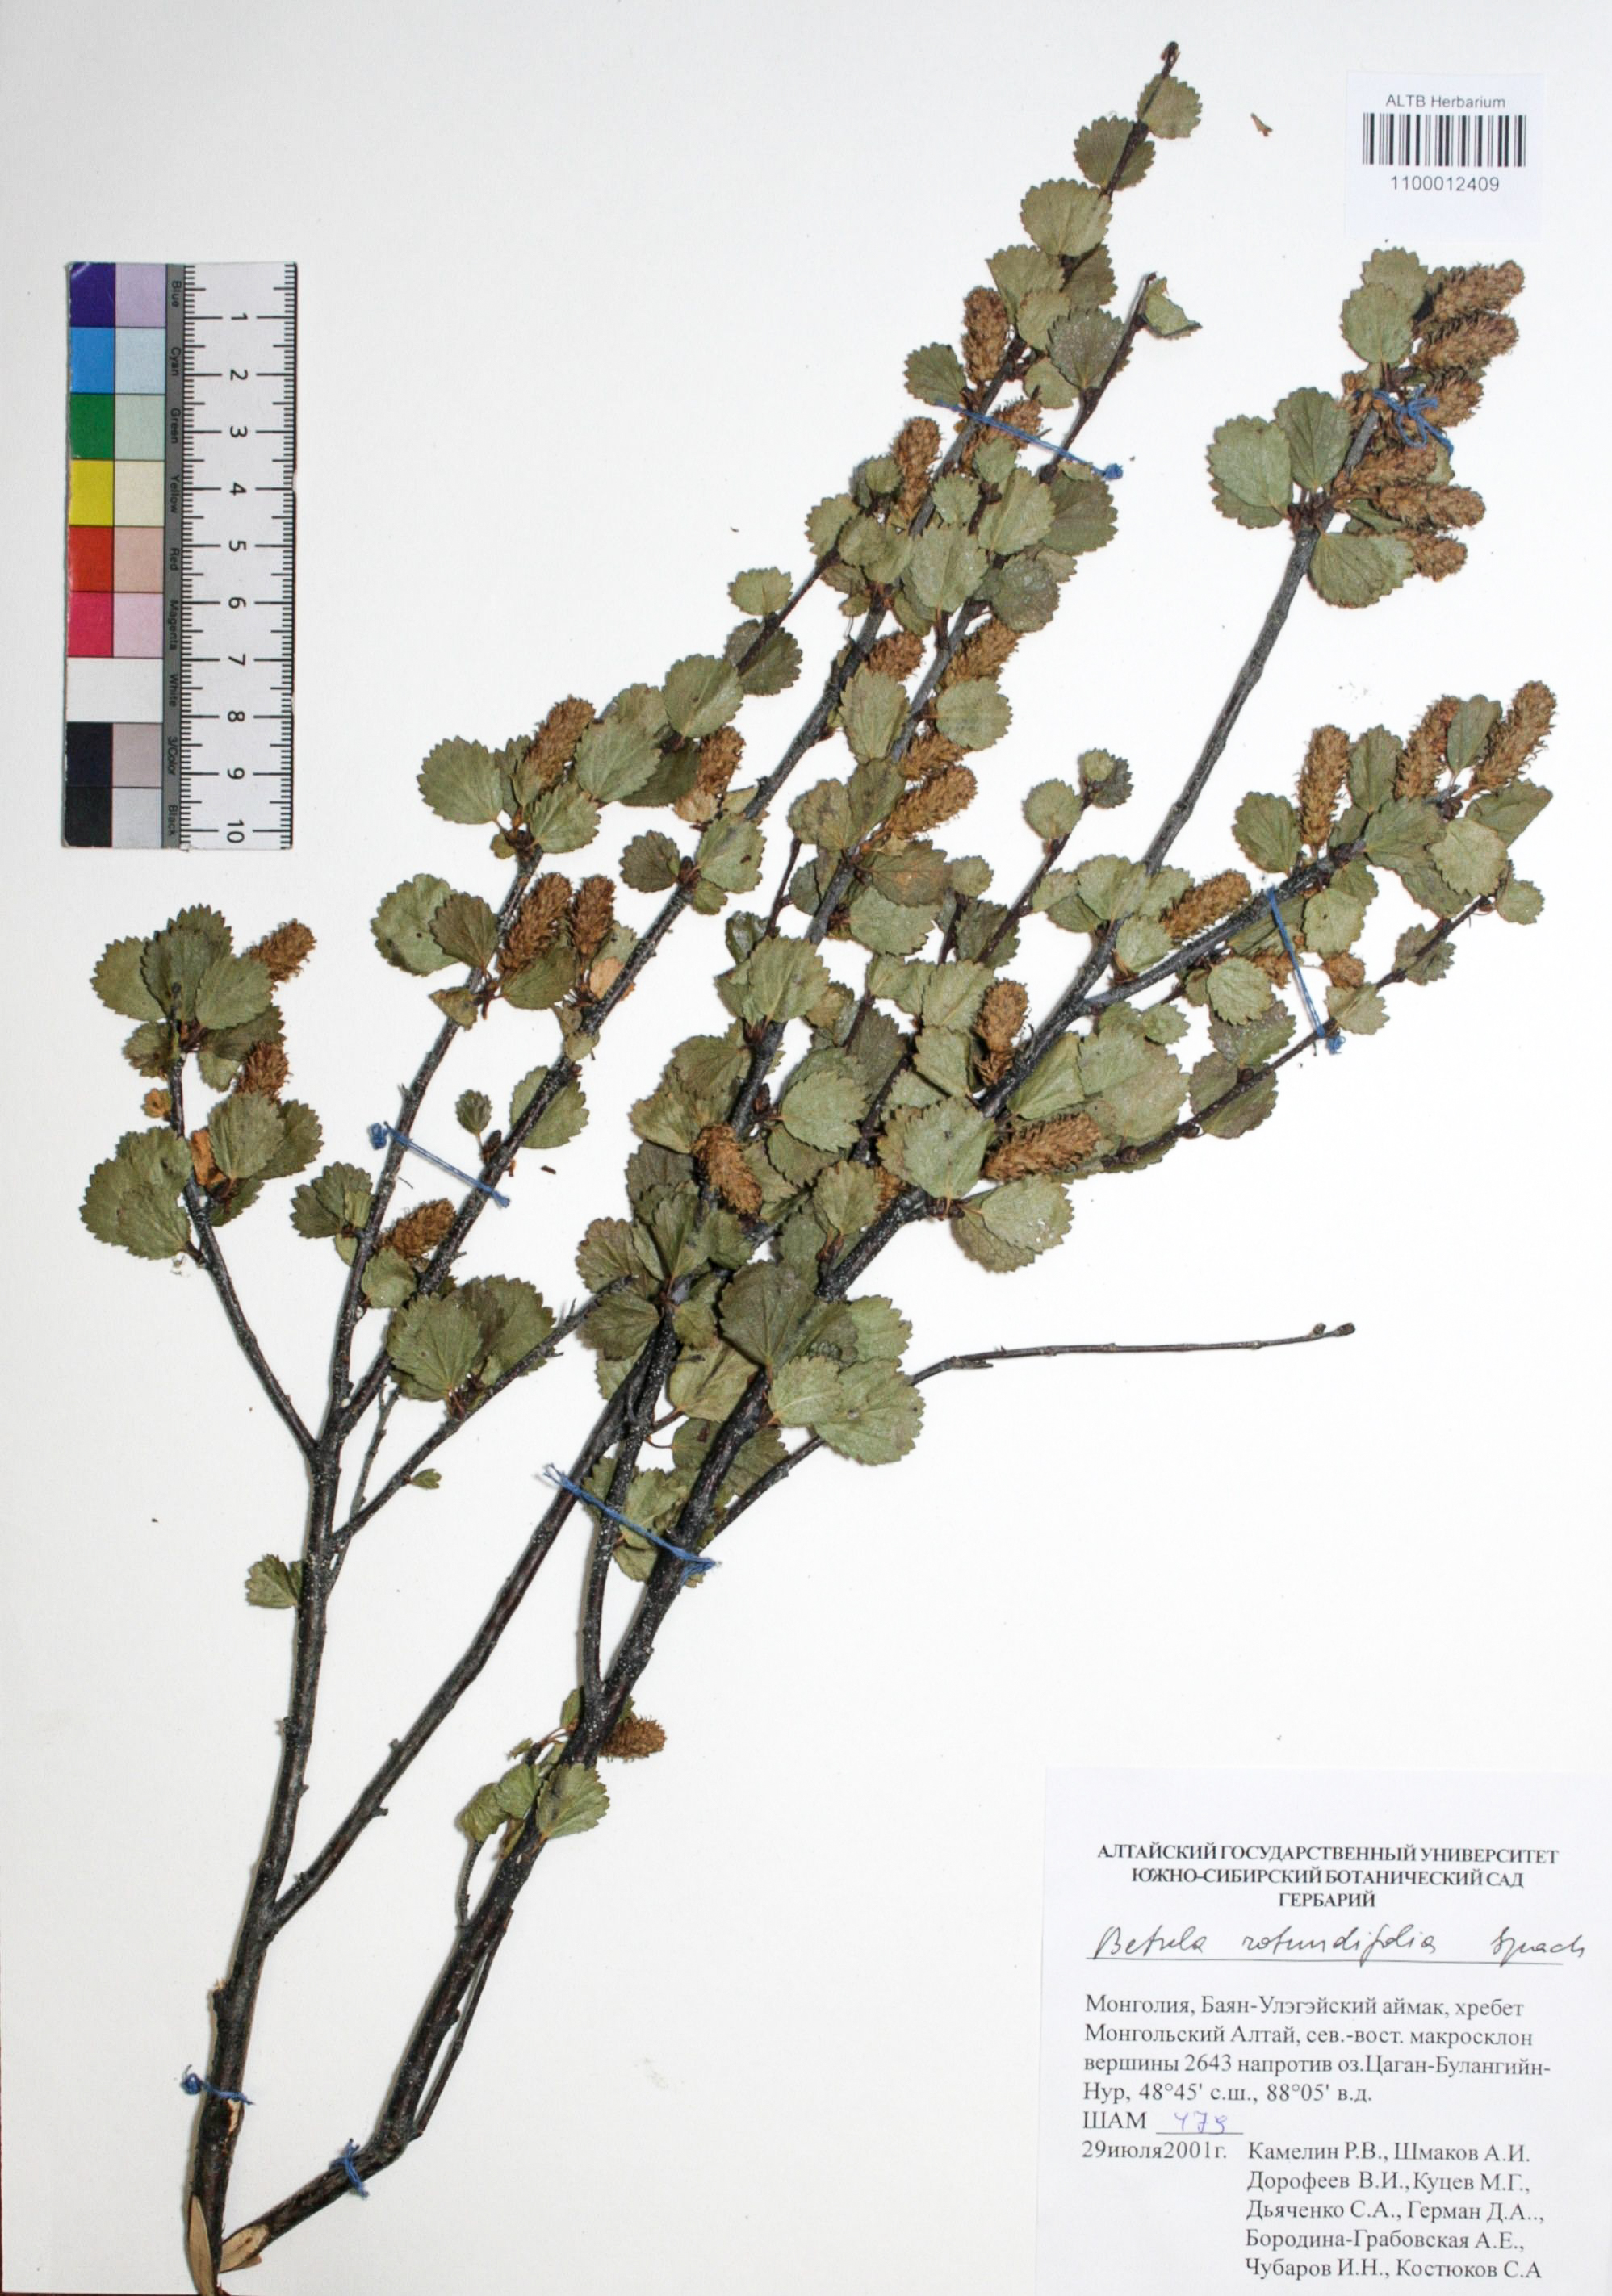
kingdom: Plantae
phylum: Tracheophyta
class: Magnoliopsida
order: Fagales
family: Betulaceae
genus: Betula
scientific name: Betula glandulosa
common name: Dwarf birch
